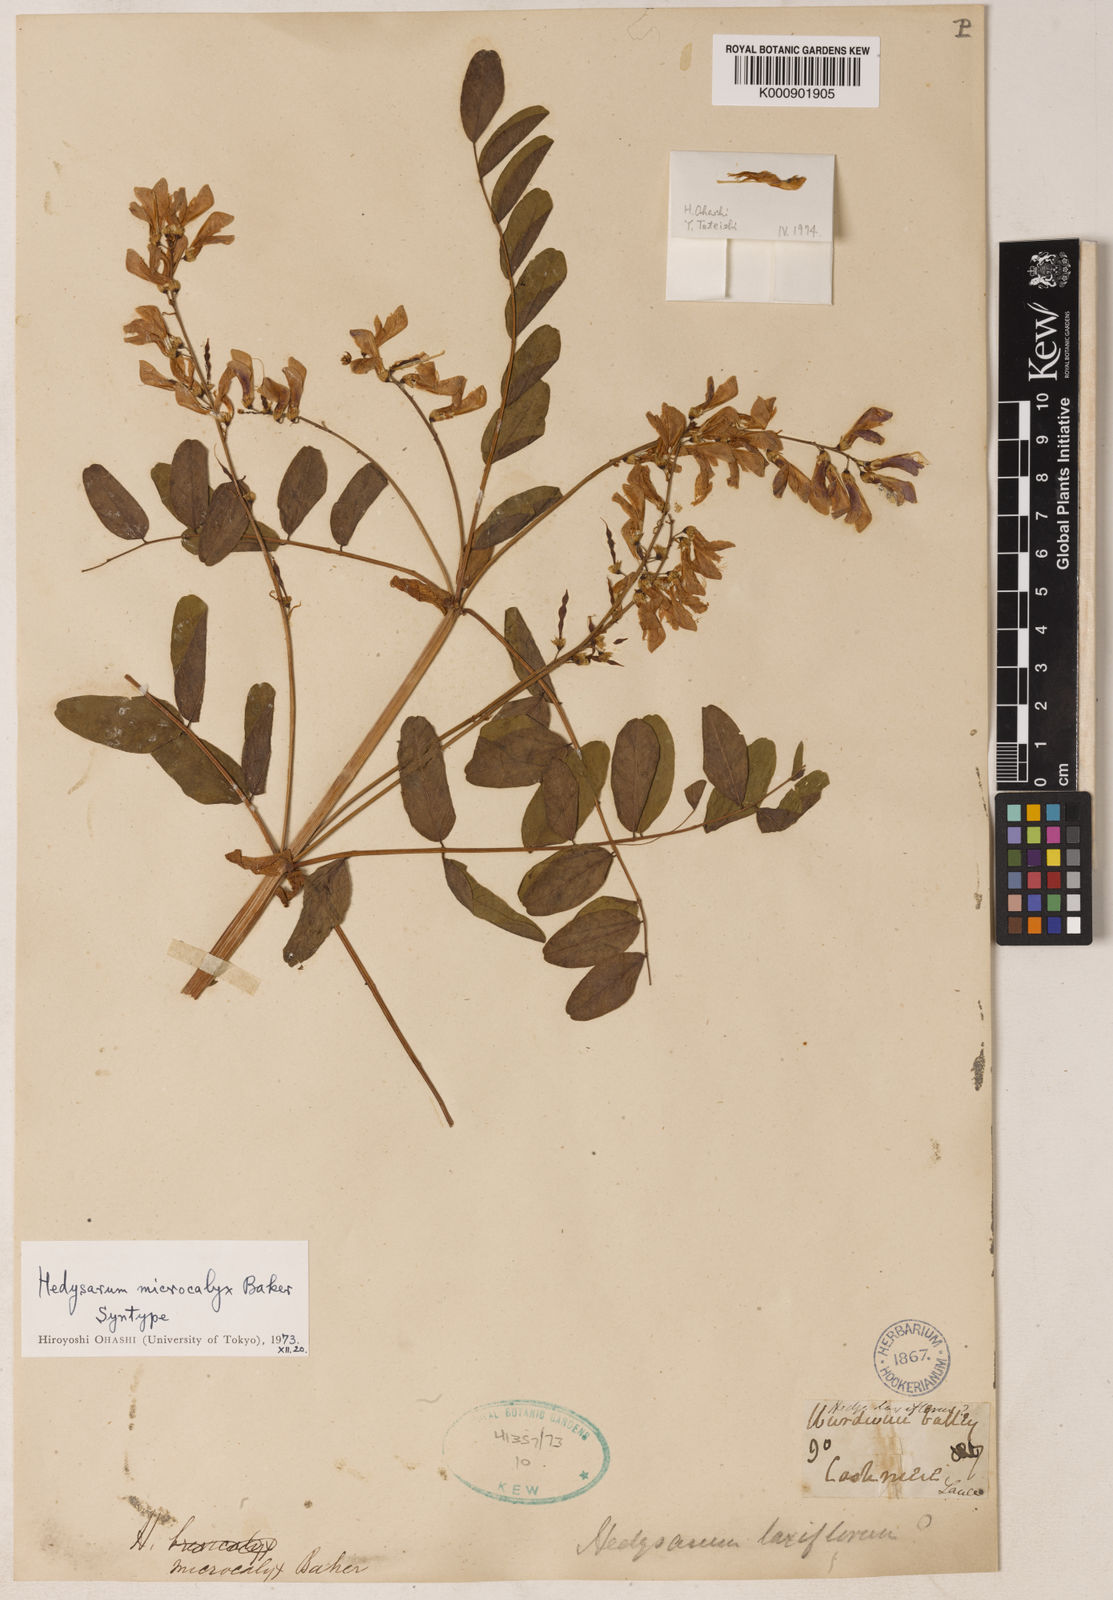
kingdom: Plantae
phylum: Tracheophyta
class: Magnoliopsida
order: Fabales
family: Fabaceae
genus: Hedysarum
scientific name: Hedysarum microcalyx
